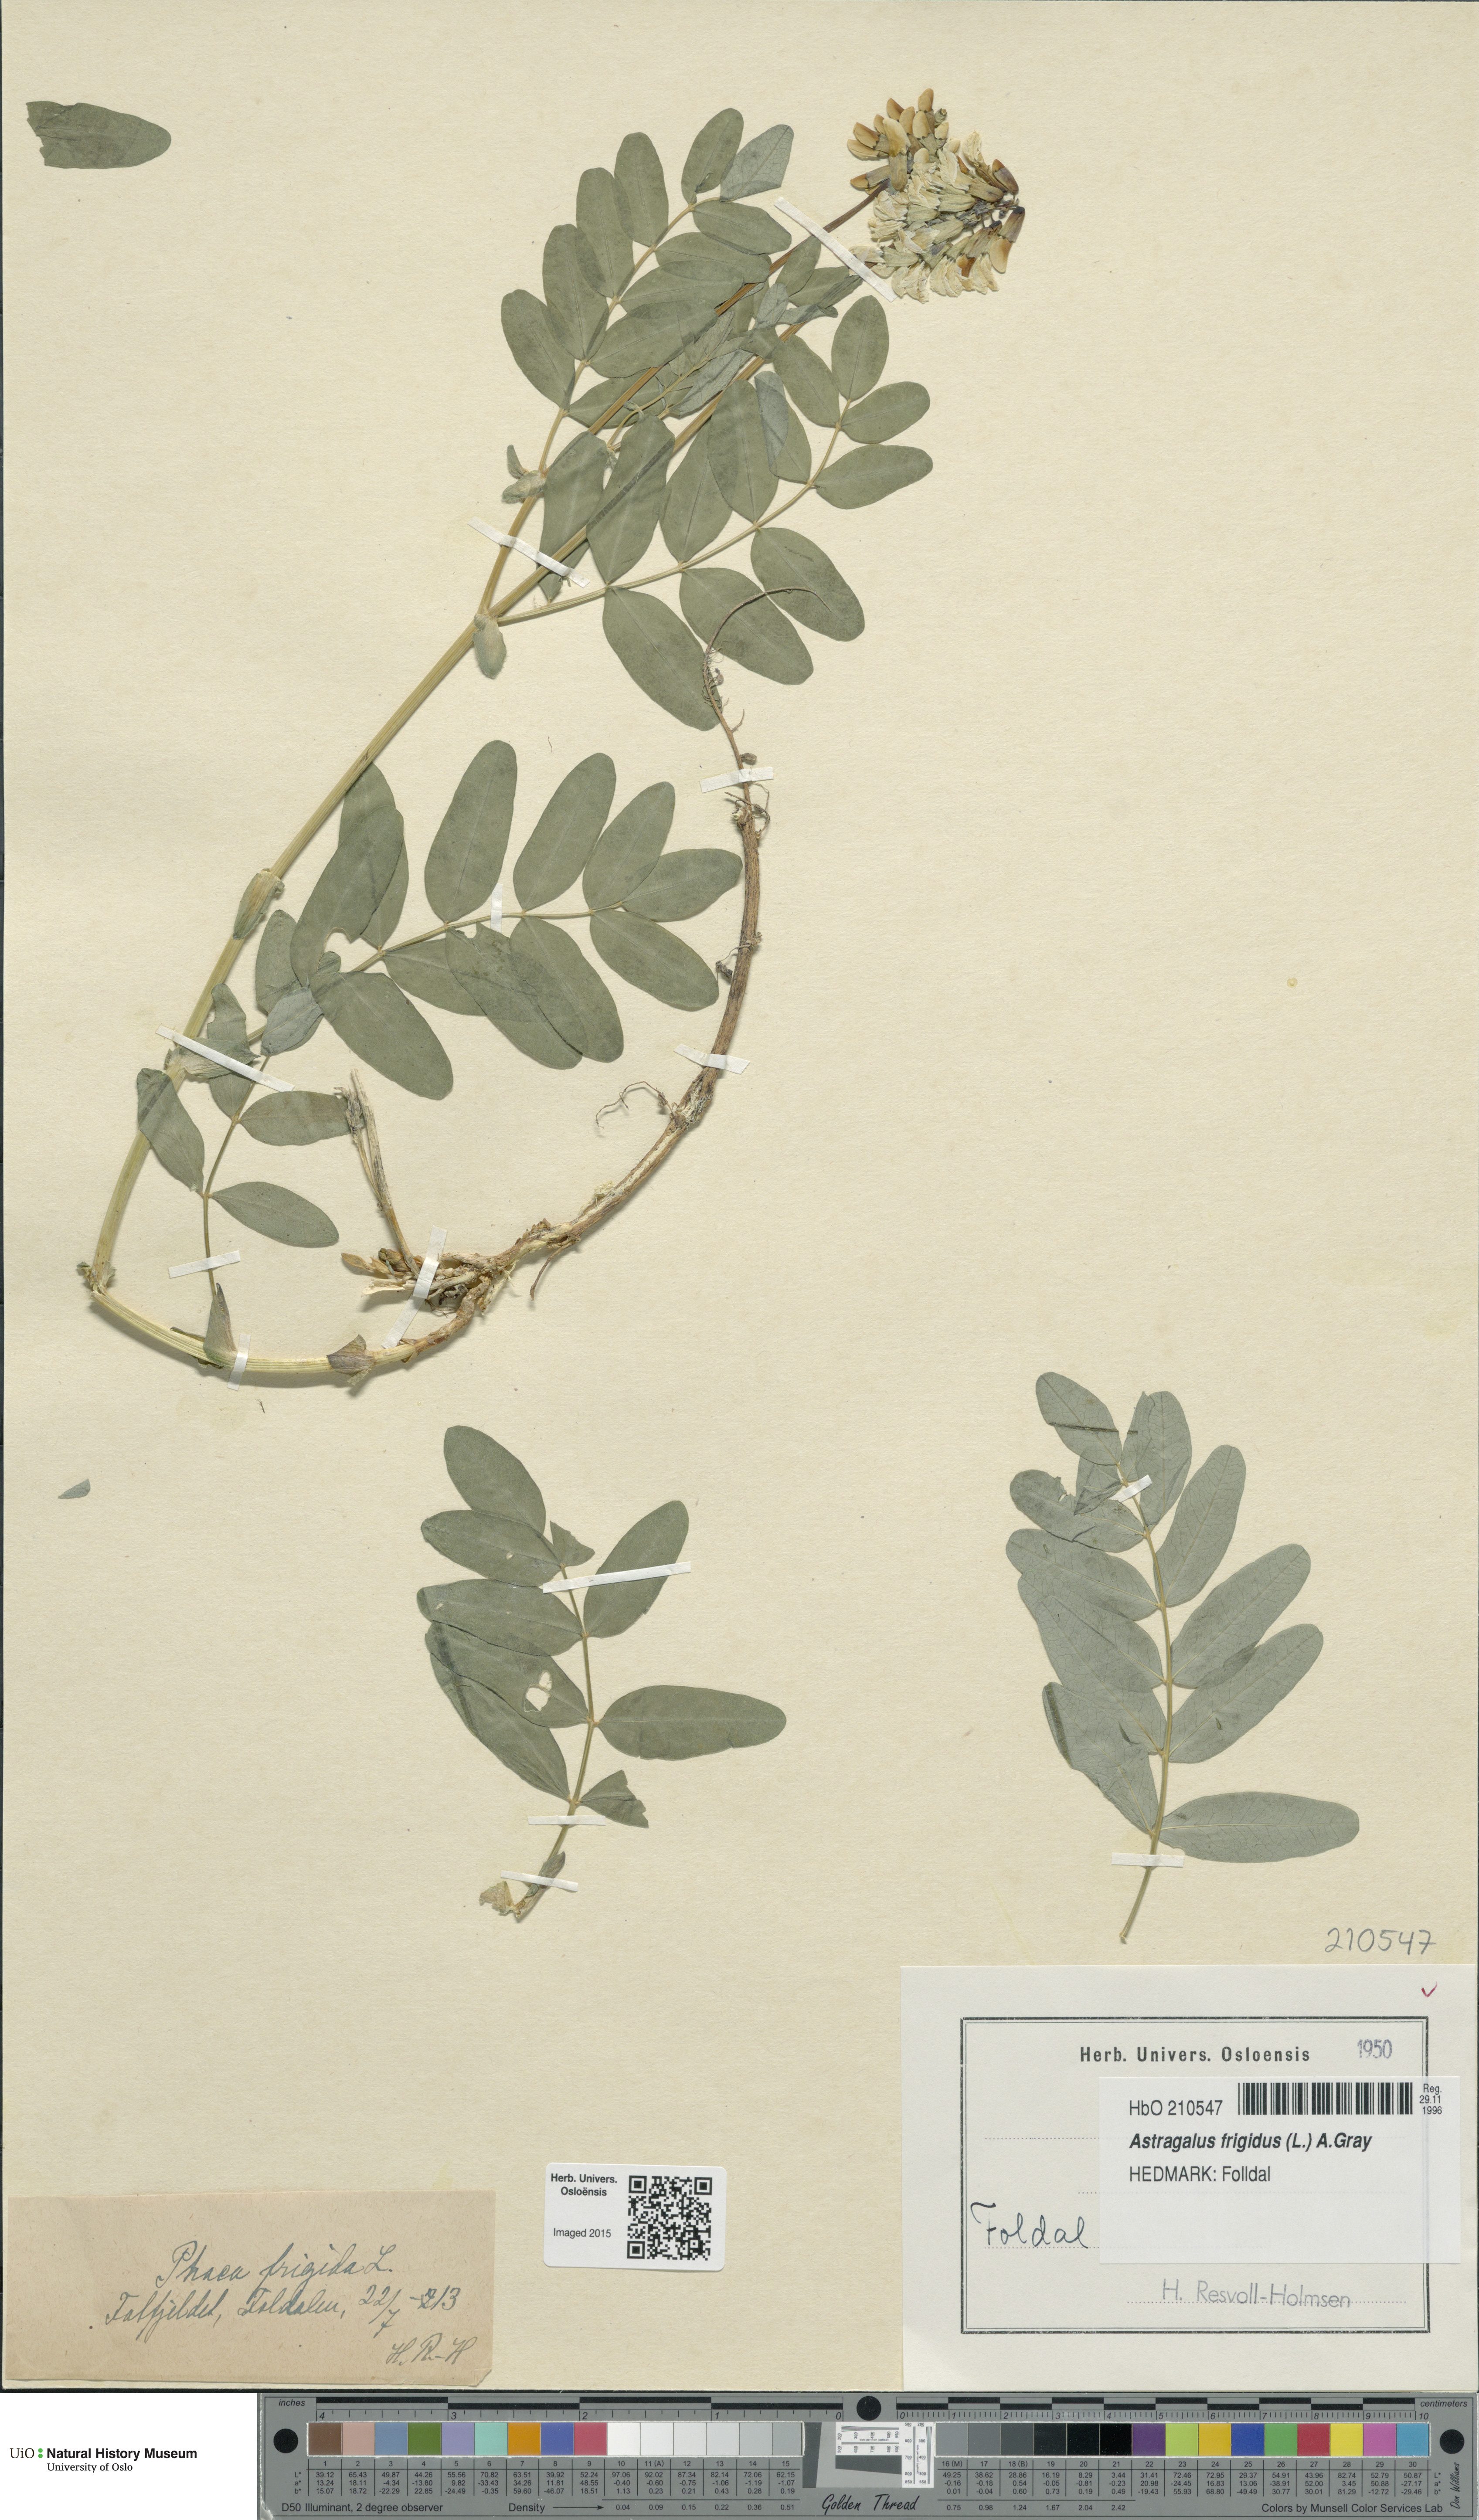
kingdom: Plantae
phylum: Tracheophyta
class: Magnoliopsida
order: Fabales
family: Fabaceae
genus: Astragalus
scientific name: Astragalus frigidus
